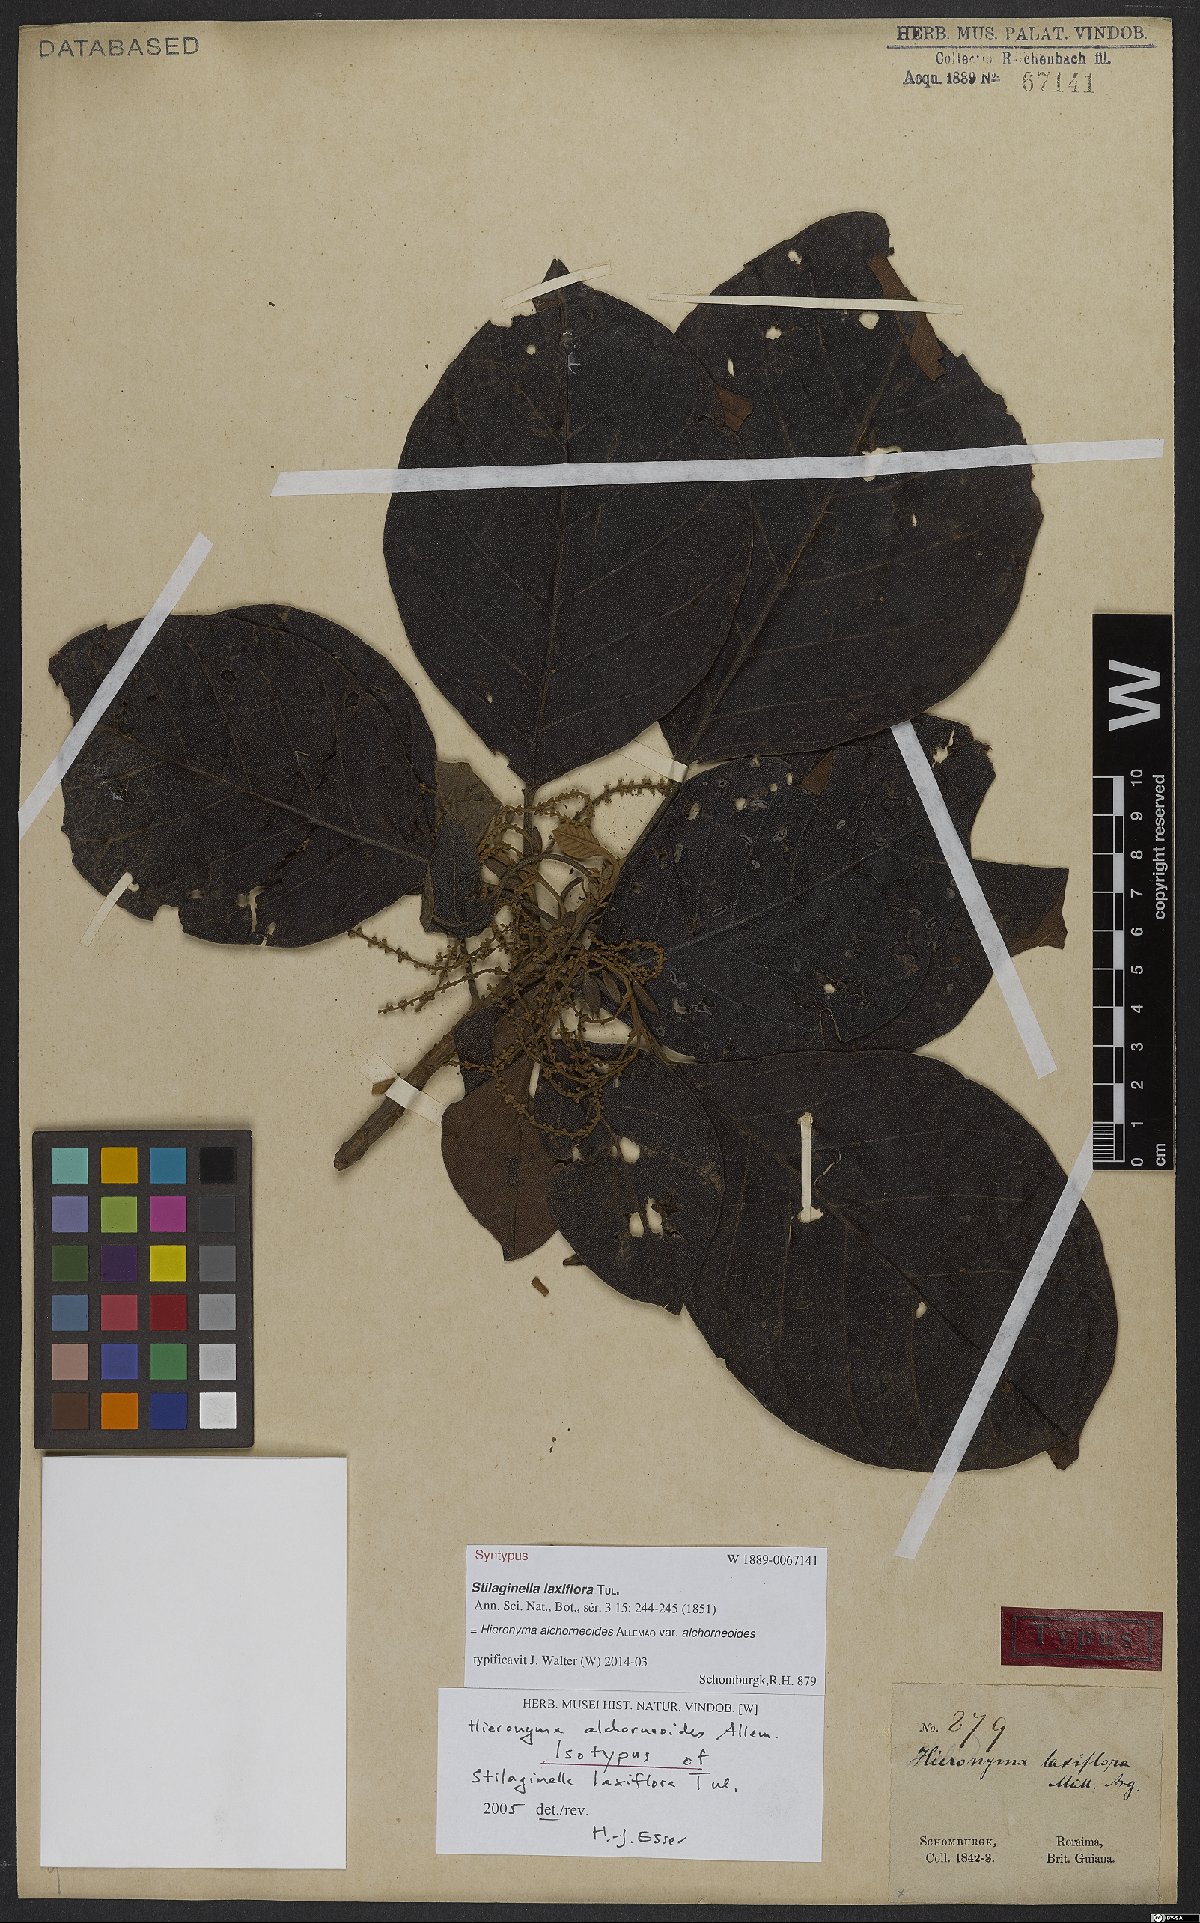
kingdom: Plantae
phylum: Tracheophyta
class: Magnoliopsida
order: Malpighiales
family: Phyllanthaceae
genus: Hieronyma
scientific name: Hieronyma alchorneoides
